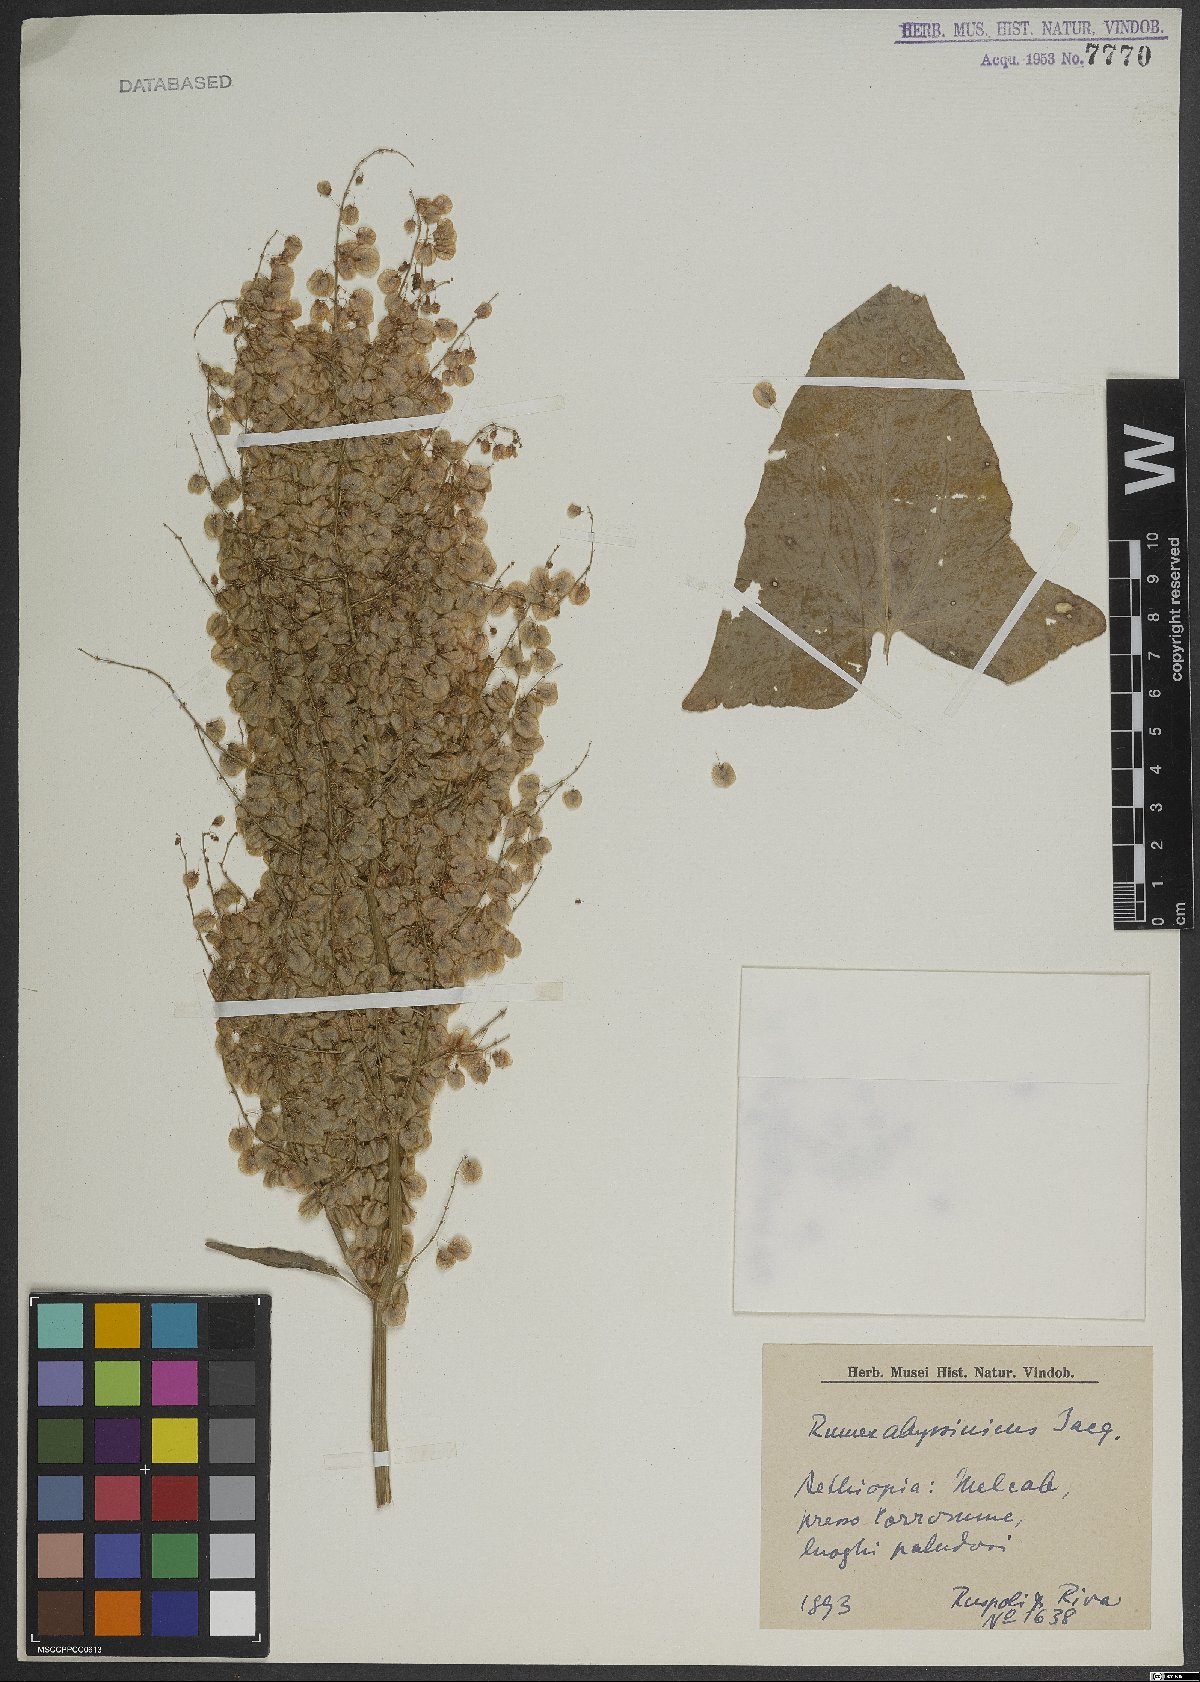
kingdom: Plantae
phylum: Tracheophyta
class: Magnoliopsida
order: Caryophyllales
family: Polygonaceae
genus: Rumex
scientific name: Rumex abyssinicus
